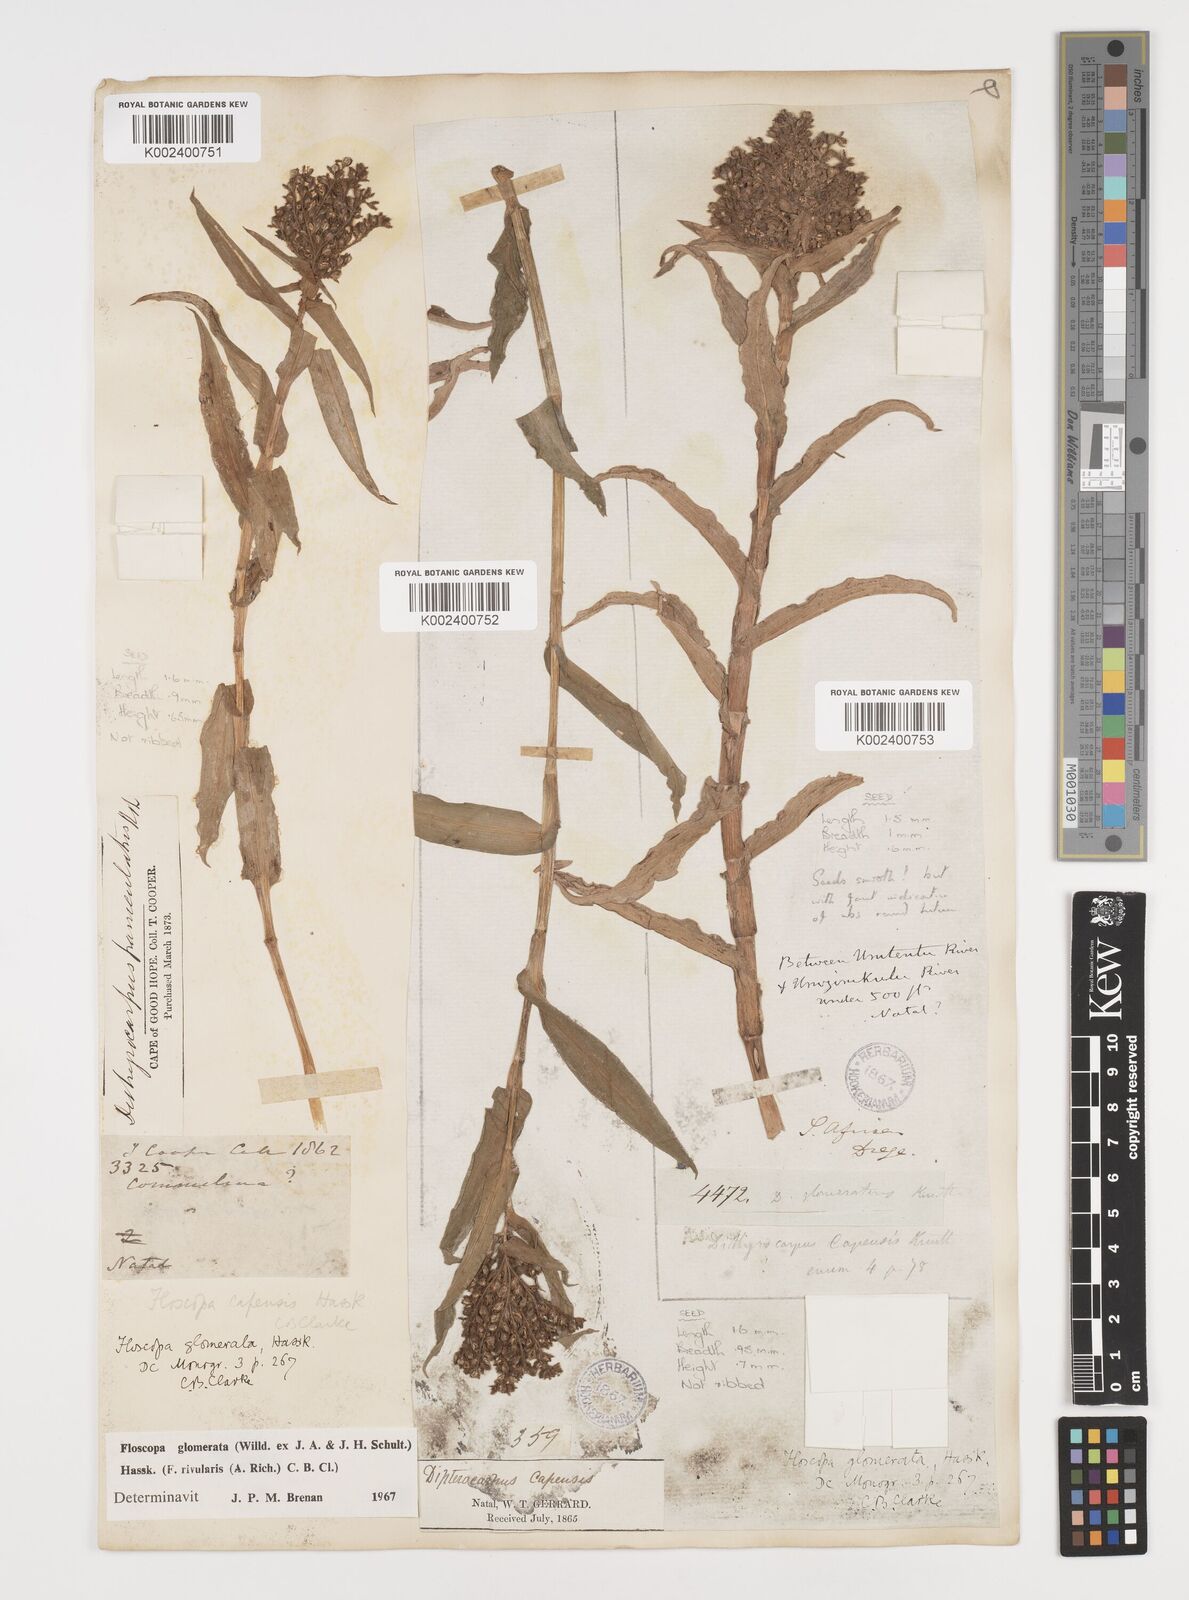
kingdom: Plantae
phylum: Tracheophyta
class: Liliopsida
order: Commelinales
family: Commelinaceae
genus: Floscopa
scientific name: Floscopa glomerata
